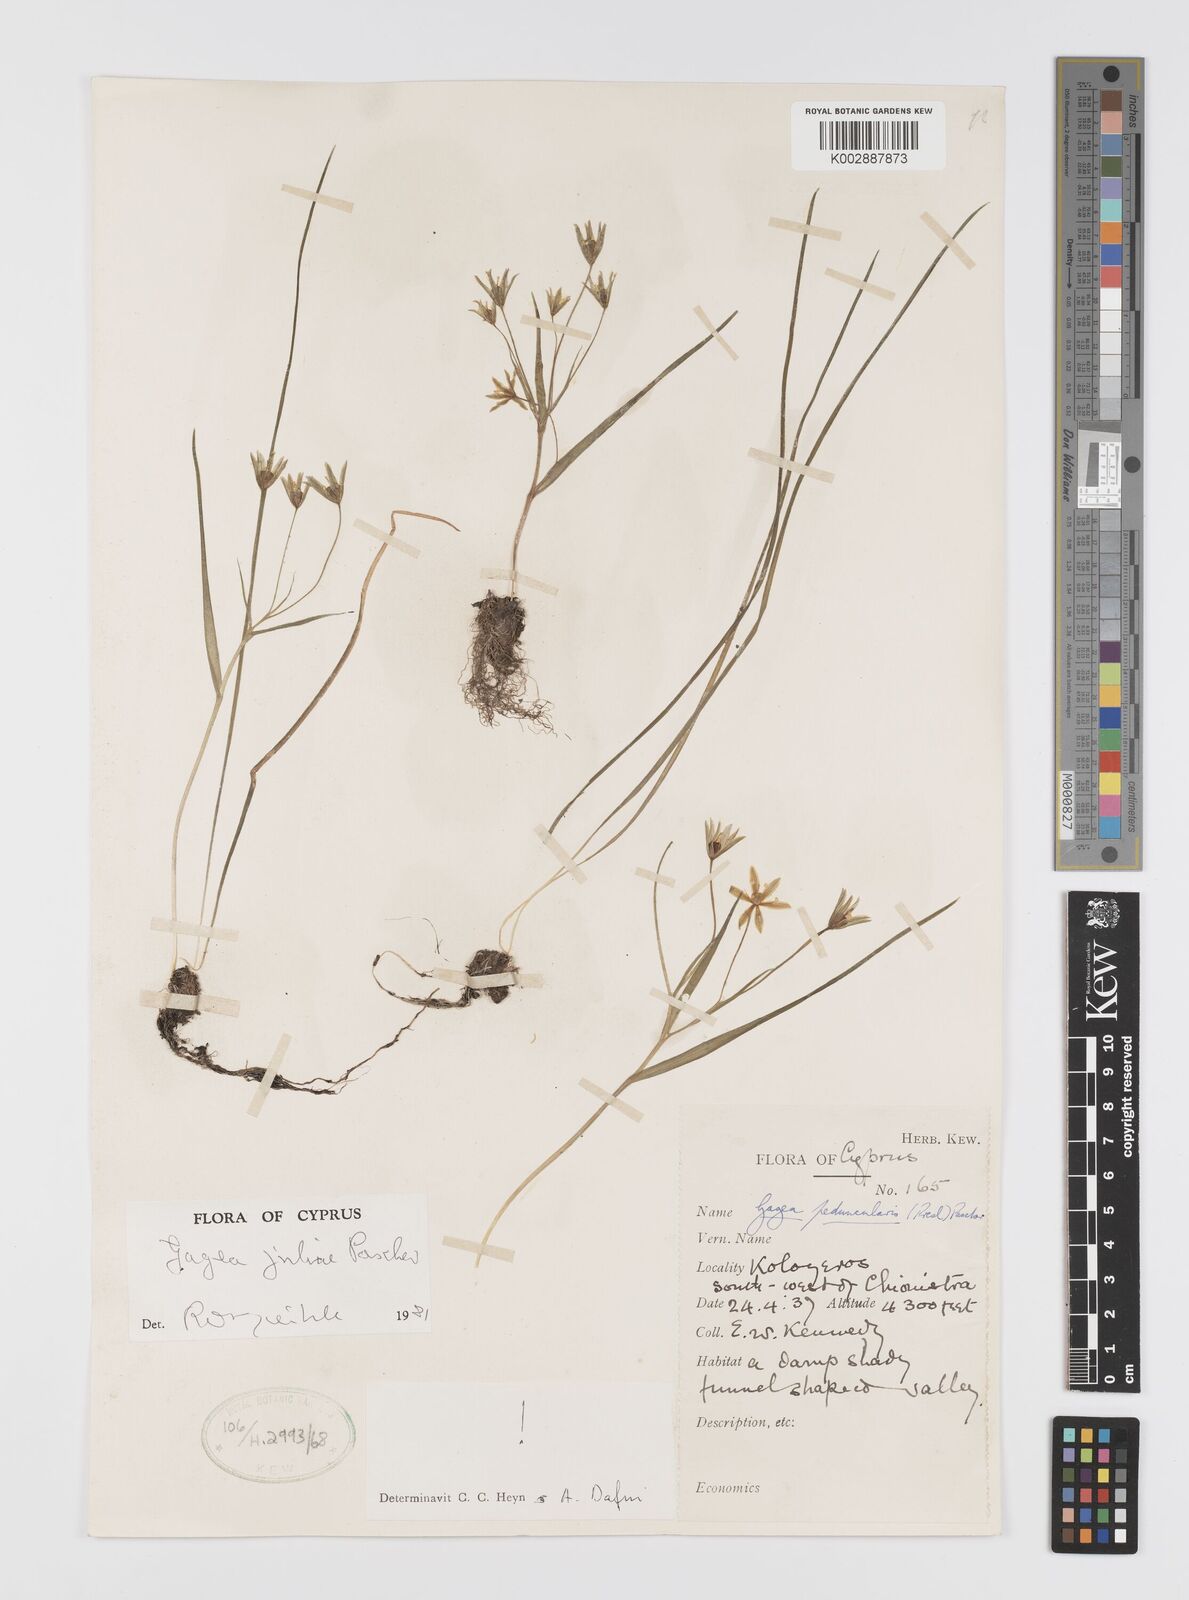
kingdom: Plantae
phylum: Tracheophyta
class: Liliopsida
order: Liliales
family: Liliaceae
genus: Gagea
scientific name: Gagea juliae
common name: Julia’s gagea
